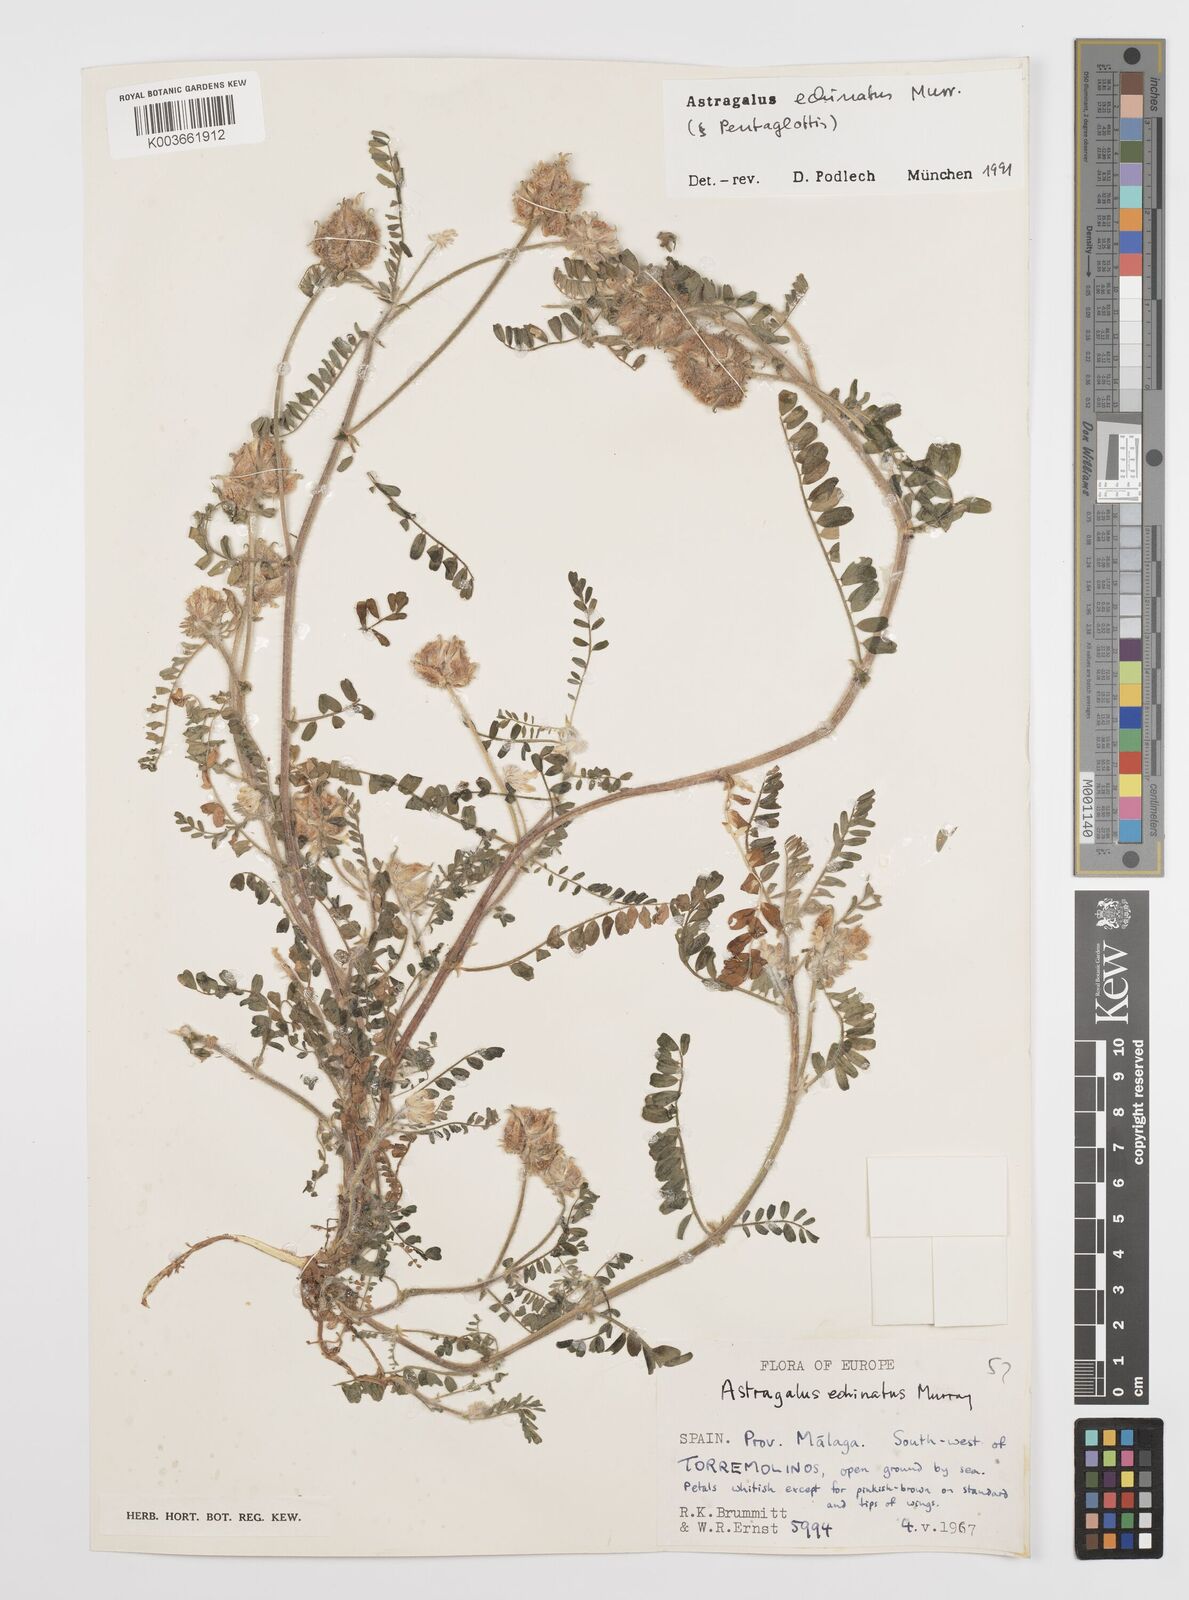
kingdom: Plantae
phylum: Tracheophyta
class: Magnoliopsida
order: Fabales
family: Fabaceae
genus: Astragalus
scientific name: Astragalus echinatus
